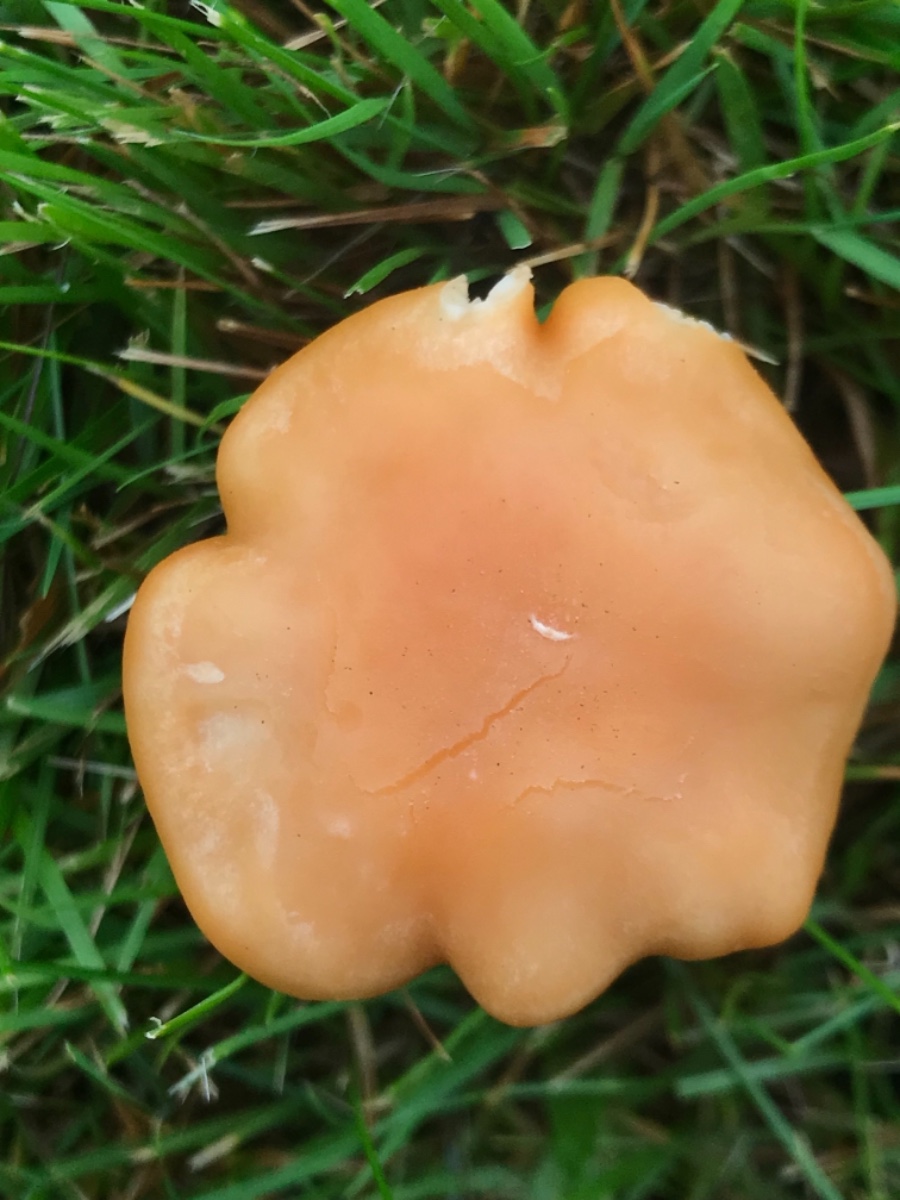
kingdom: Fungi
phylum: Basidiomycota
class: Agaricomycetes
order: Agaricales
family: Hygrophoraceae
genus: Cuphophyllus
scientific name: Cuphophyllus pratensis
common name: eng-vokshat
